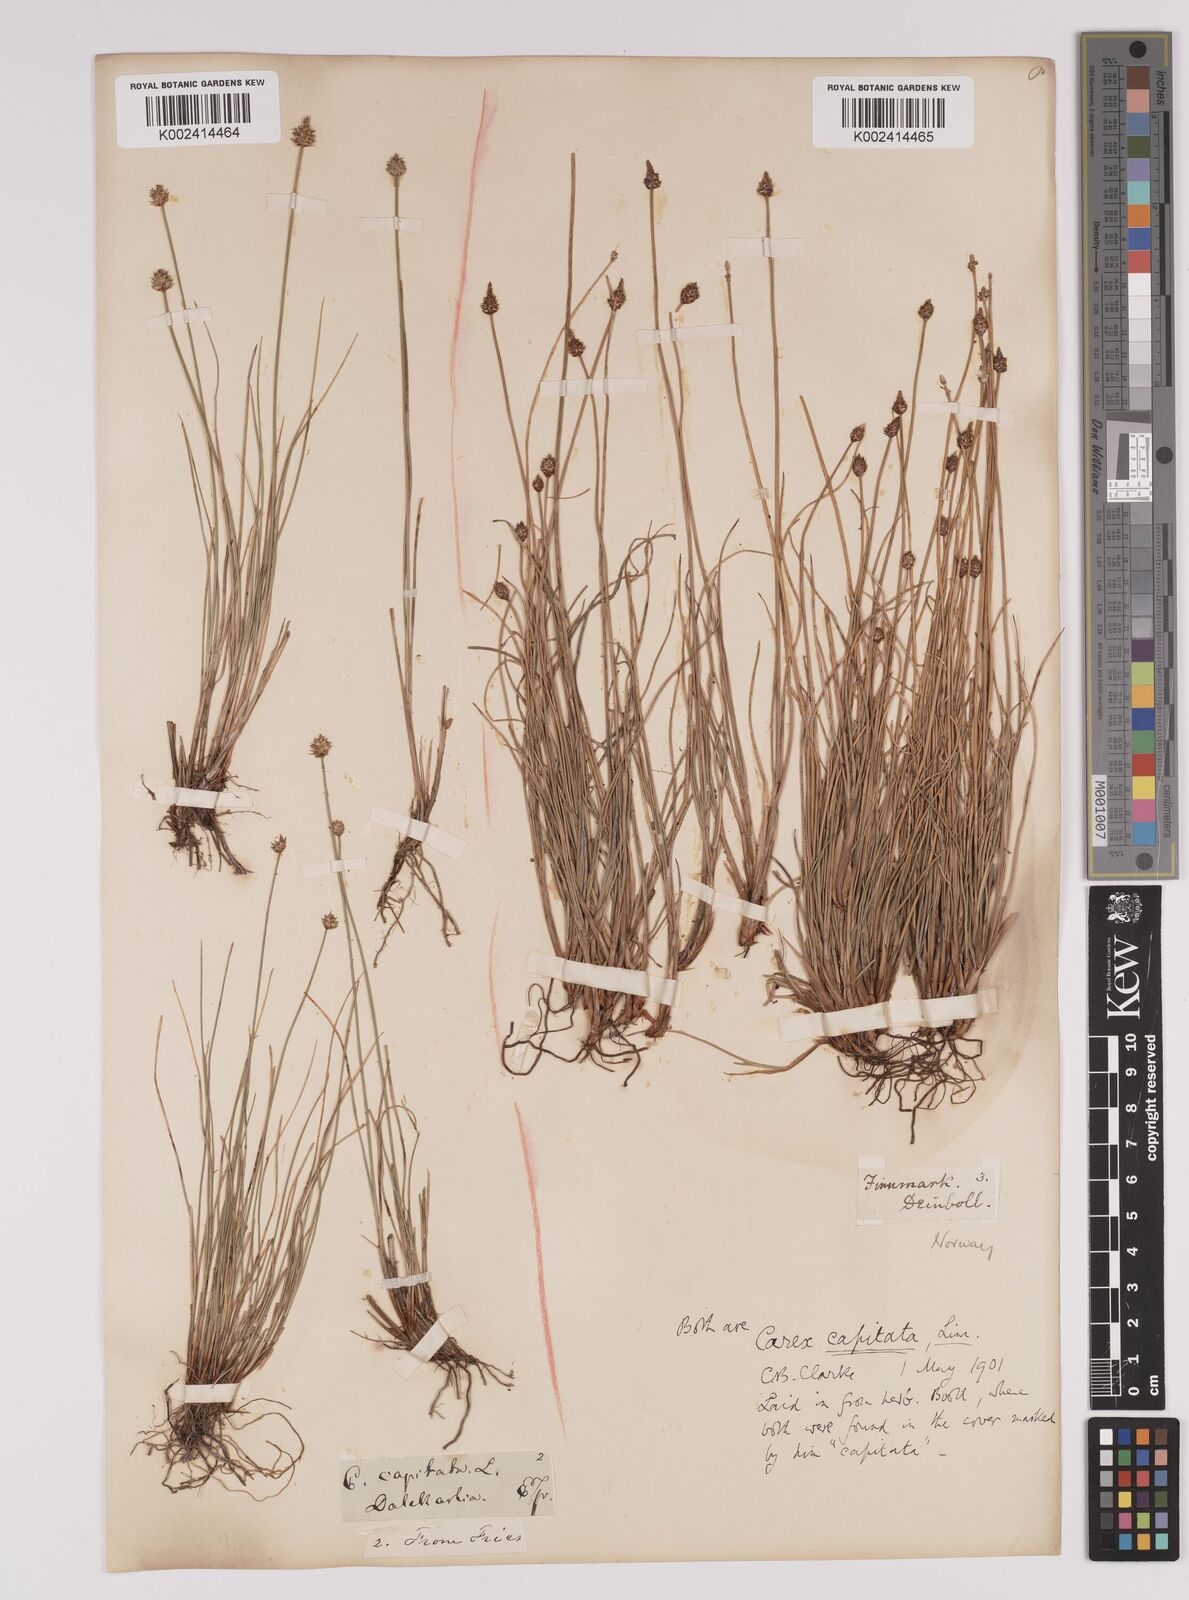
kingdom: Plantae
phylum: Tracheophyta
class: Liliopsida
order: Poales
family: Cyperaceae
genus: Carex
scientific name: Carex capitata
